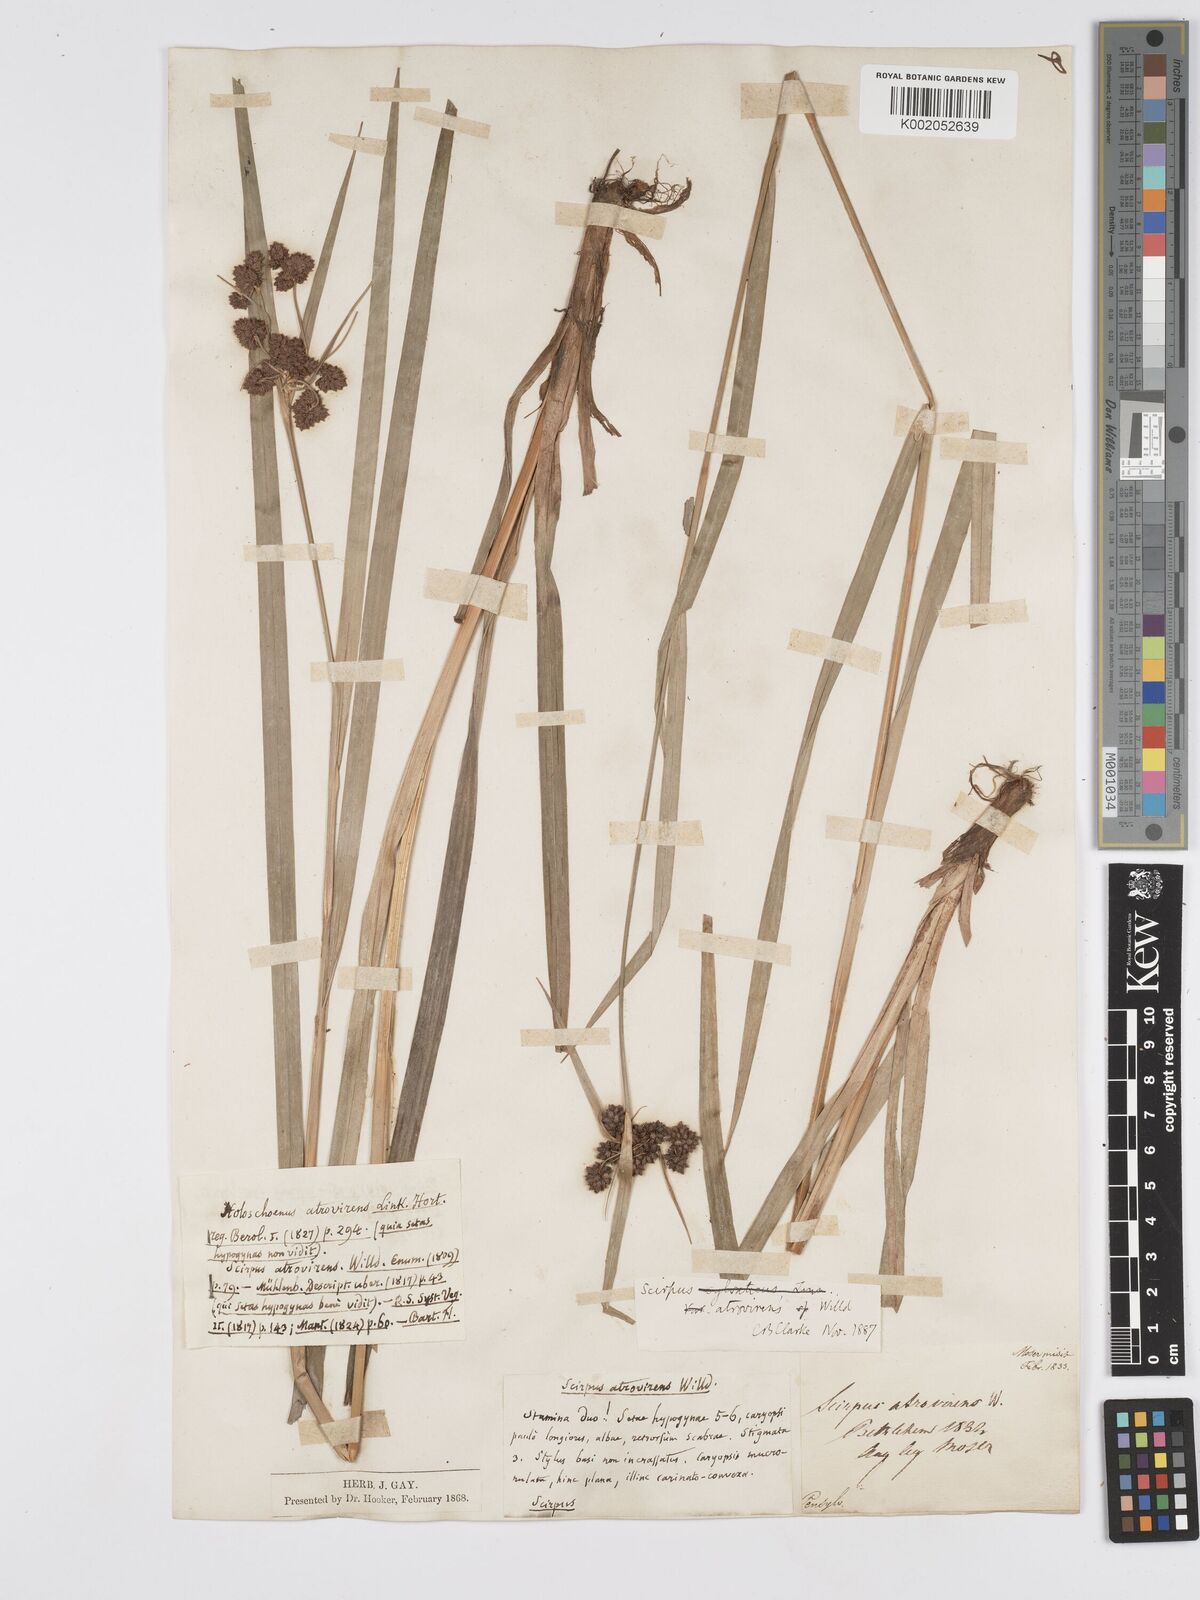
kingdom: Plantae
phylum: Tracheophyta
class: Liliopsida
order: Poales
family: Cyperaceae
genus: Scirpus
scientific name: Scirpus atrovirens
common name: Black bulrush
